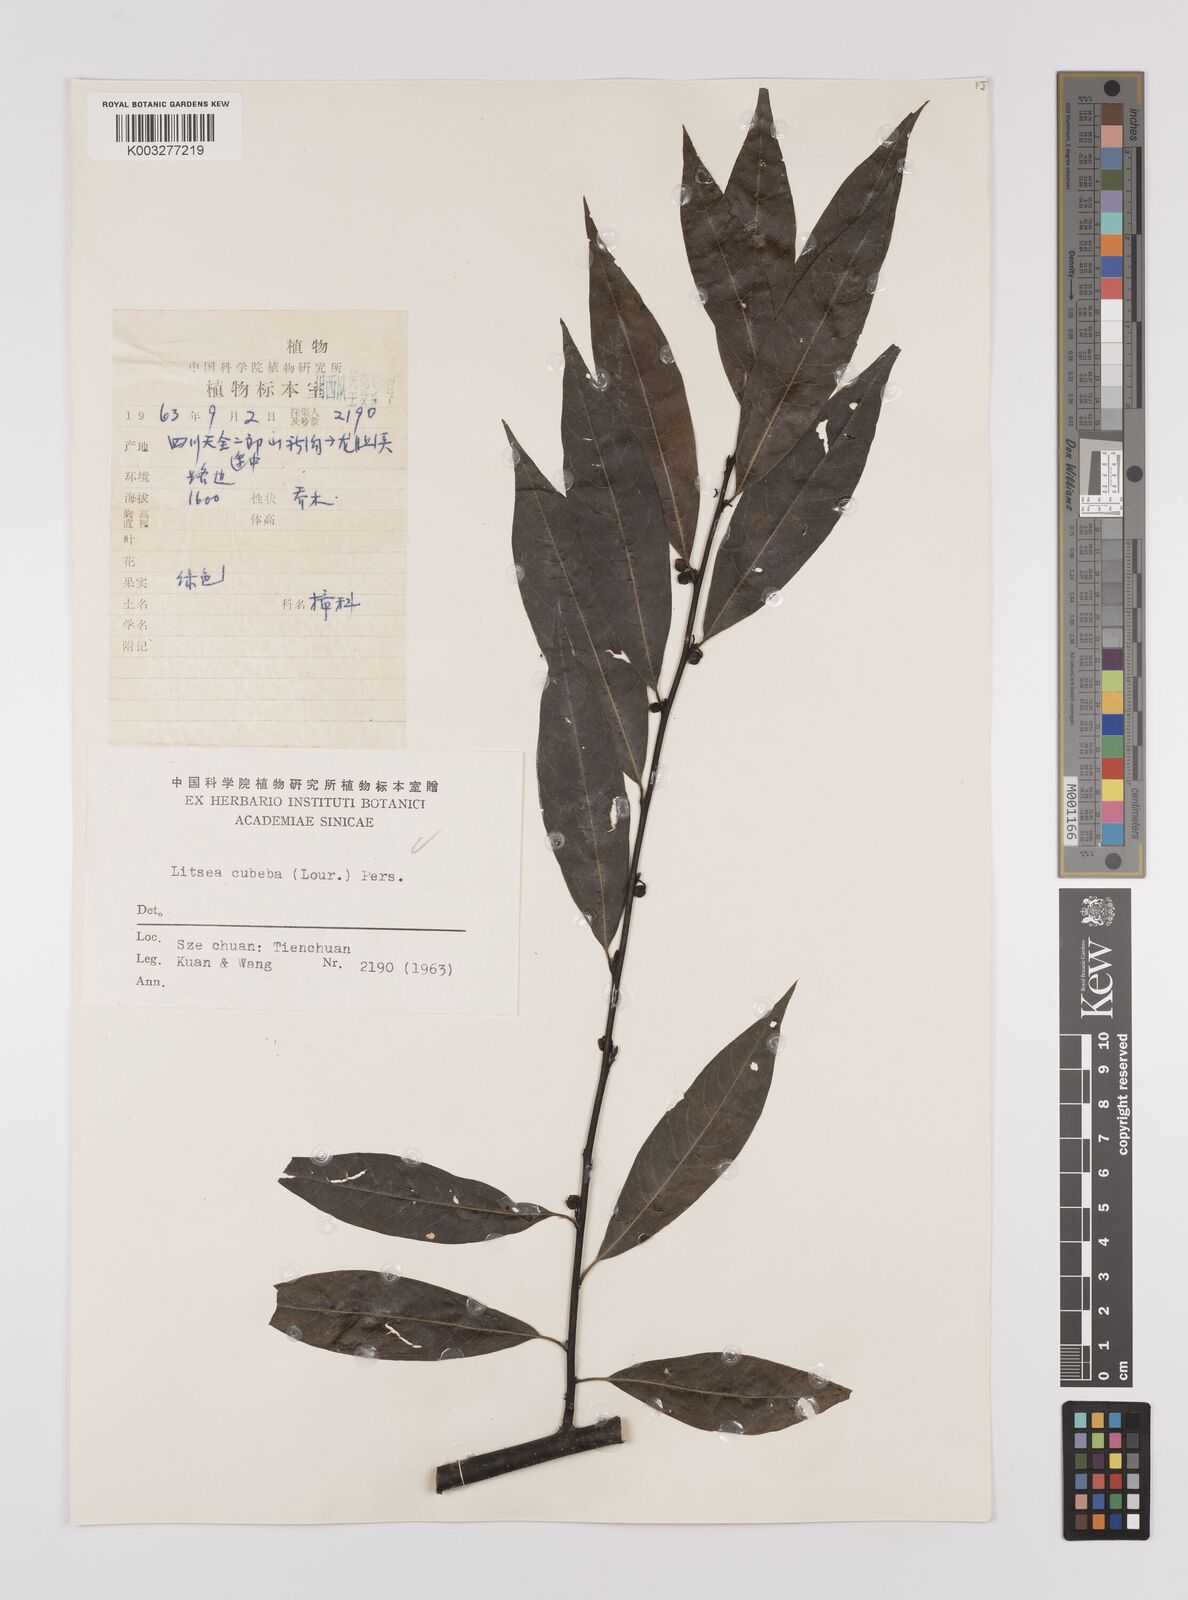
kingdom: Plantae
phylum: Tracheophyta
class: Magnoliopsida
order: Laurales
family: Lauraceae
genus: Litsea
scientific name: Litsea cubeba
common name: Mountain-pepper
